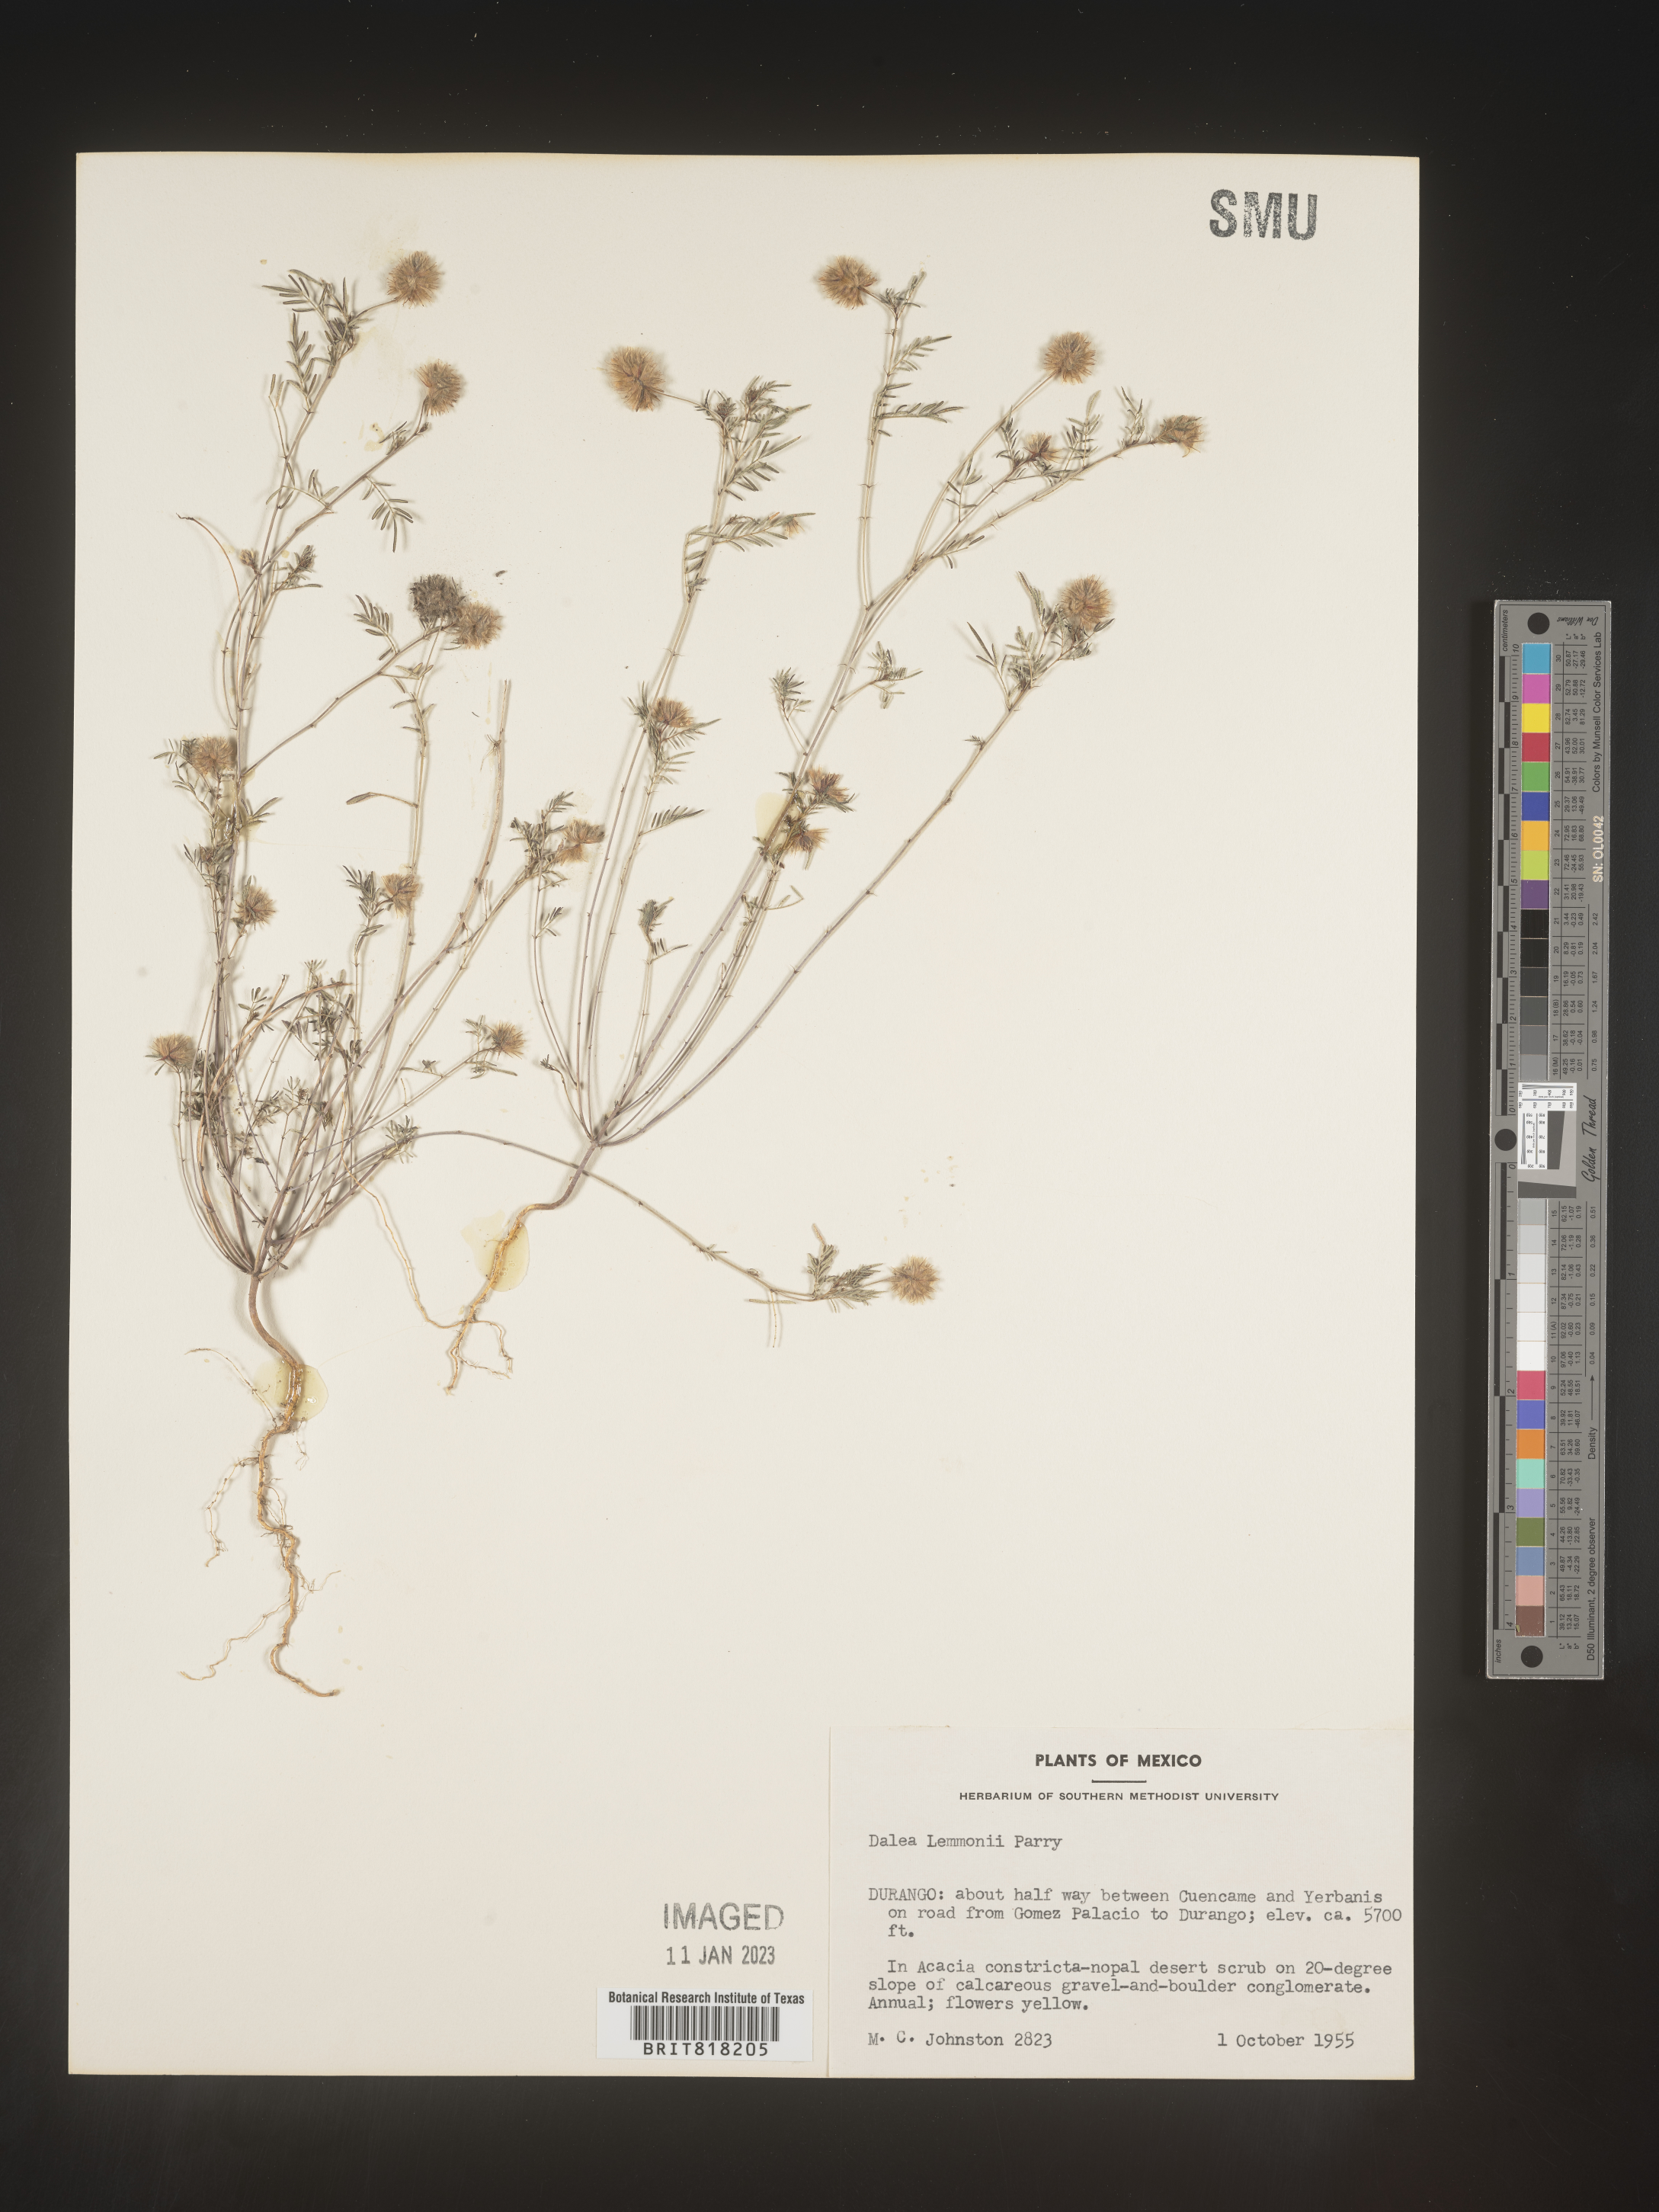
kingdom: Plantae
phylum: Tracheophyta
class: Magnoliopsida
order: Fabales
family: Fabaceae
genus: Dalea
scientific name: Dalea
